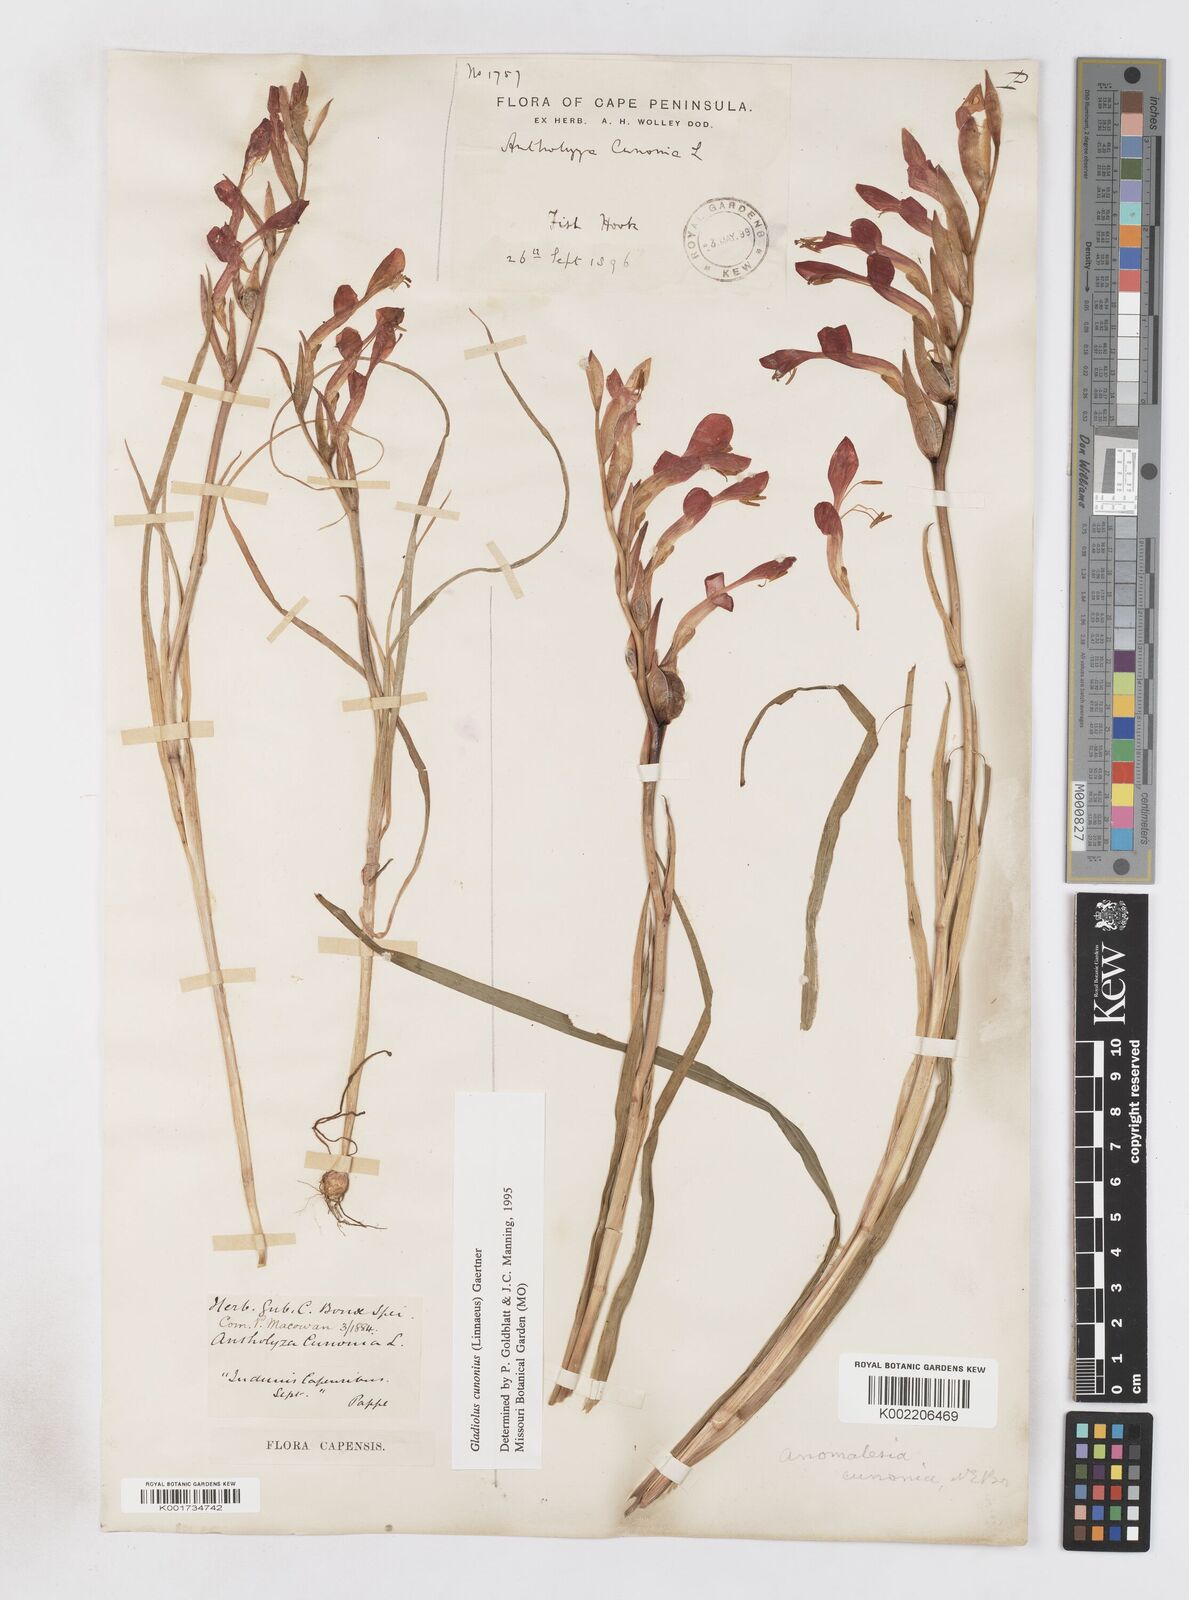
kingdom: Plantae
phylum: Tracheophyta
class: Liliopsida
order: Asparagales
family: Iridaceae
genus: Gladiolus
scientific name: Gladiolus cunonius
